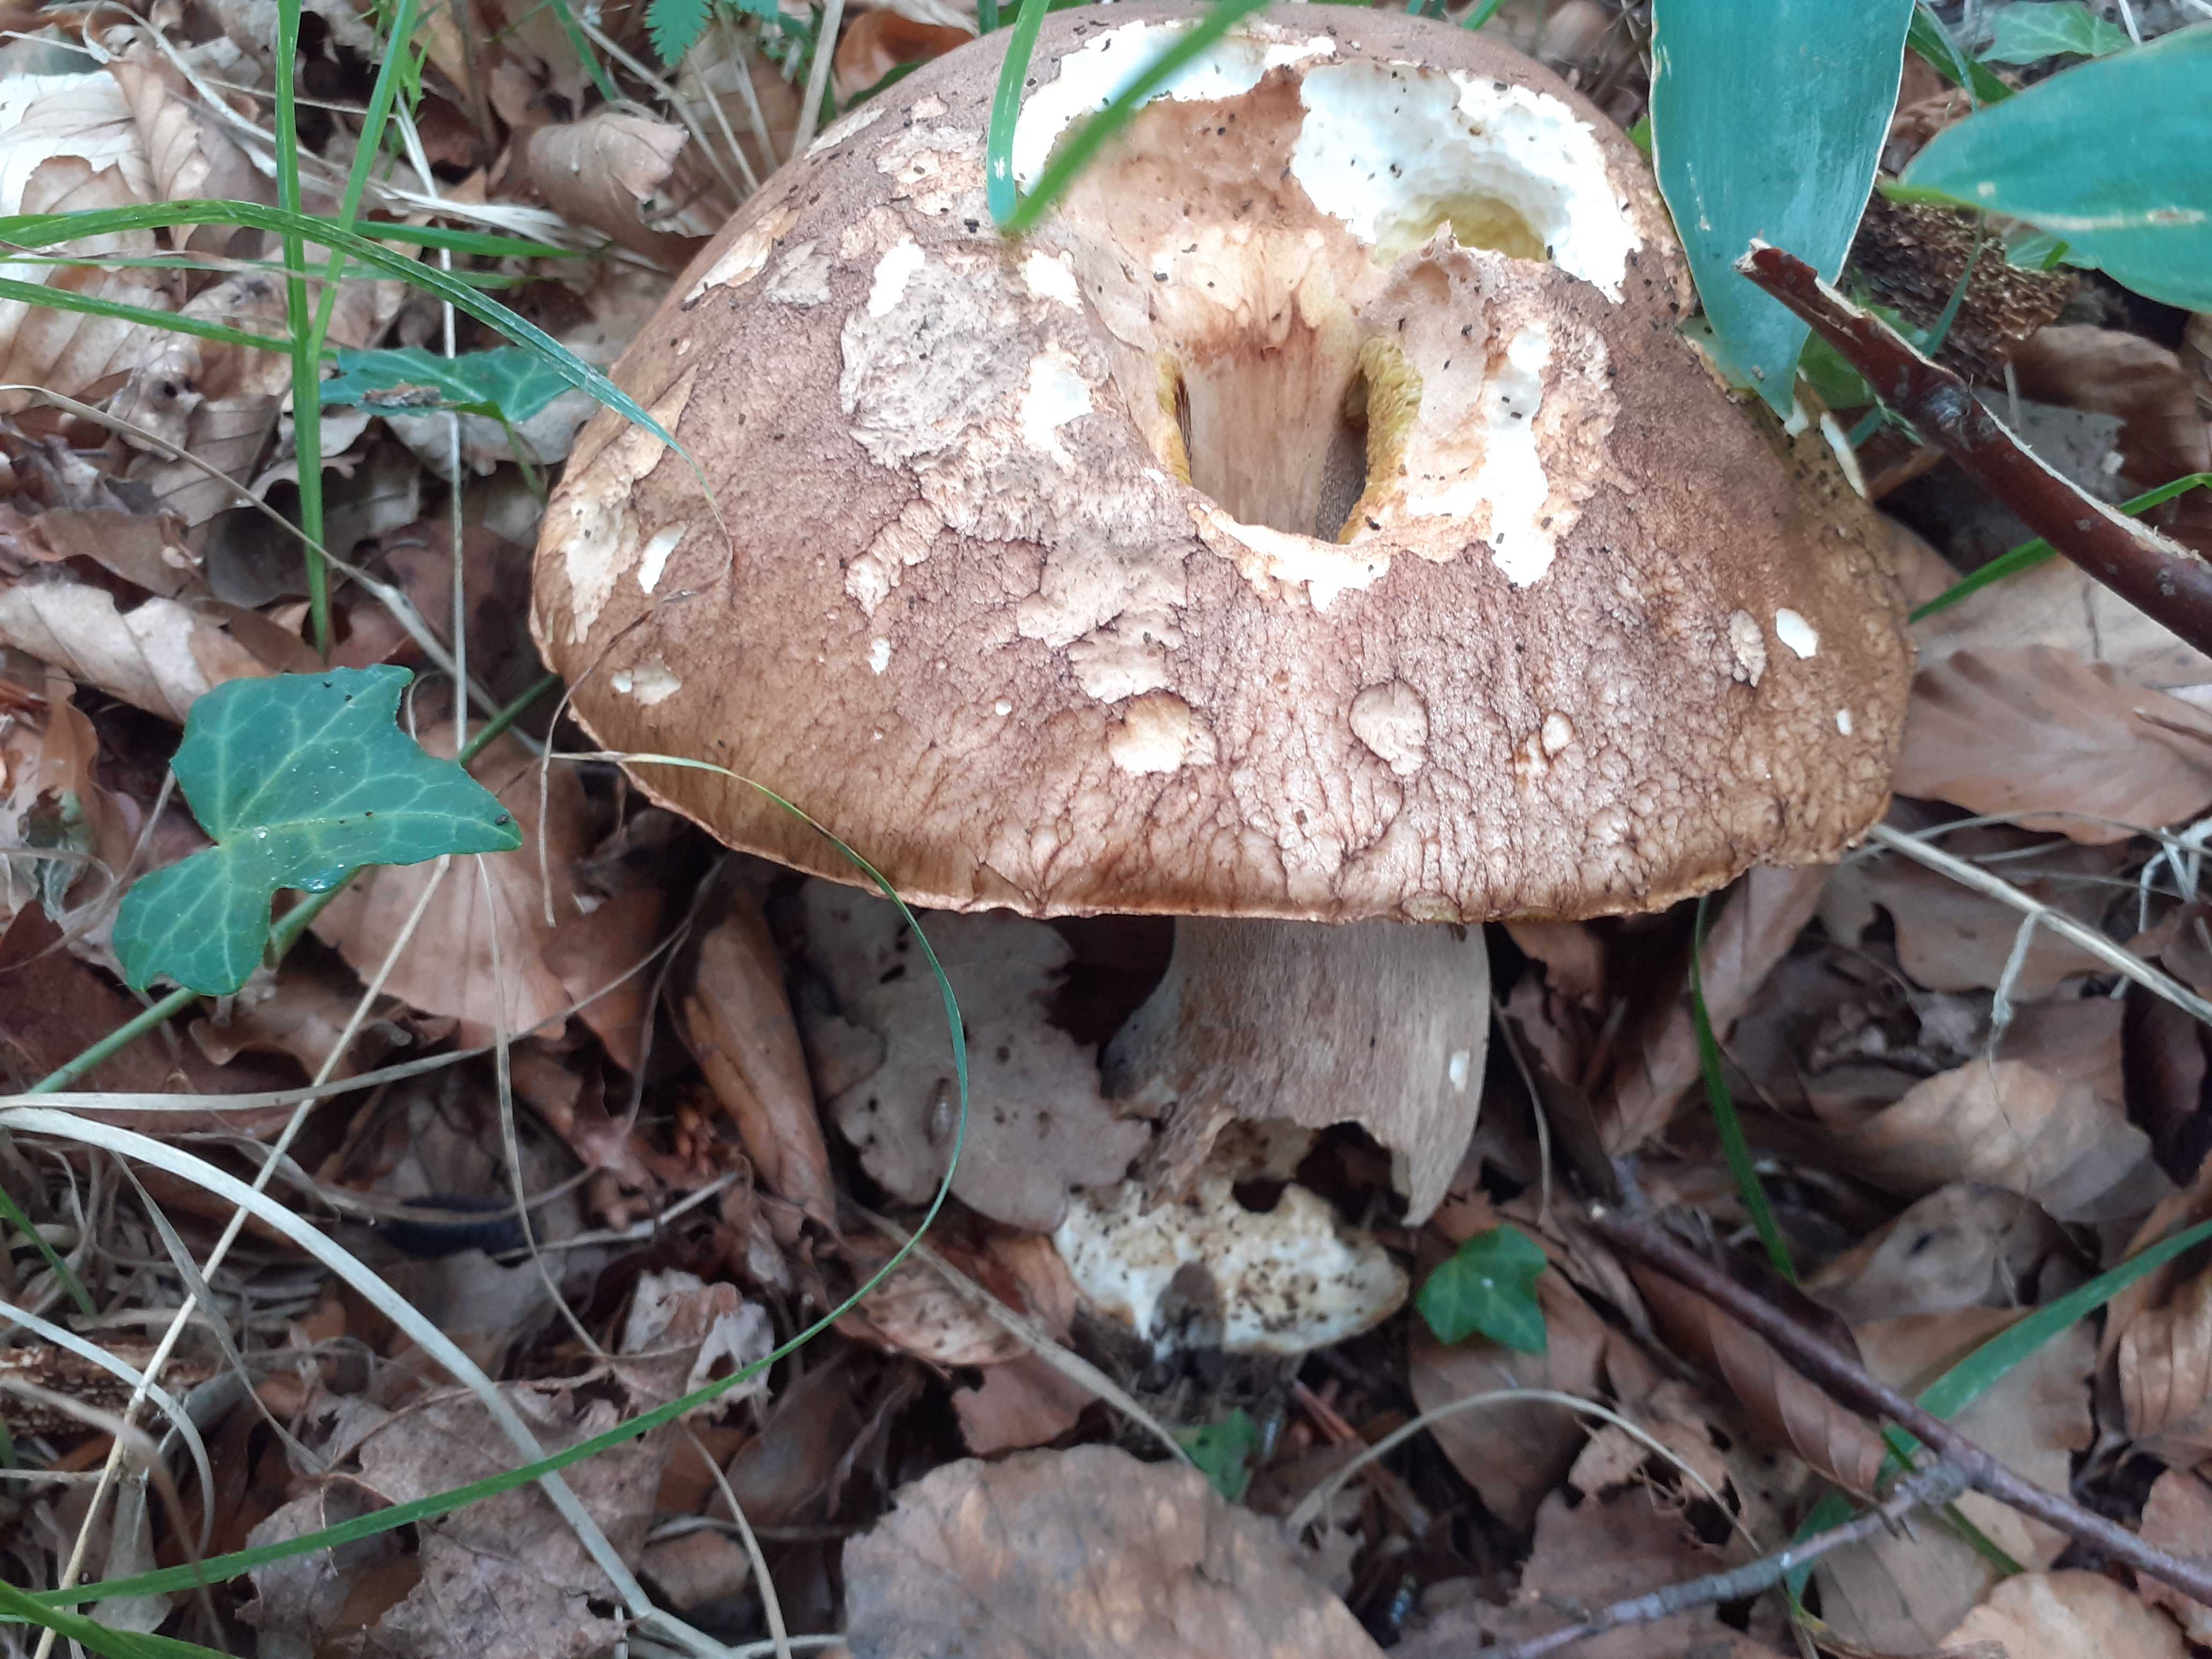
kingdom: Fungi
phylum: Basidiomycota
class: Agaricomycetes
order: Boletales
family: Boletaceae
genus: Boletus
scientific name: Boletus reticulatus
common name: sommer-rørhat
